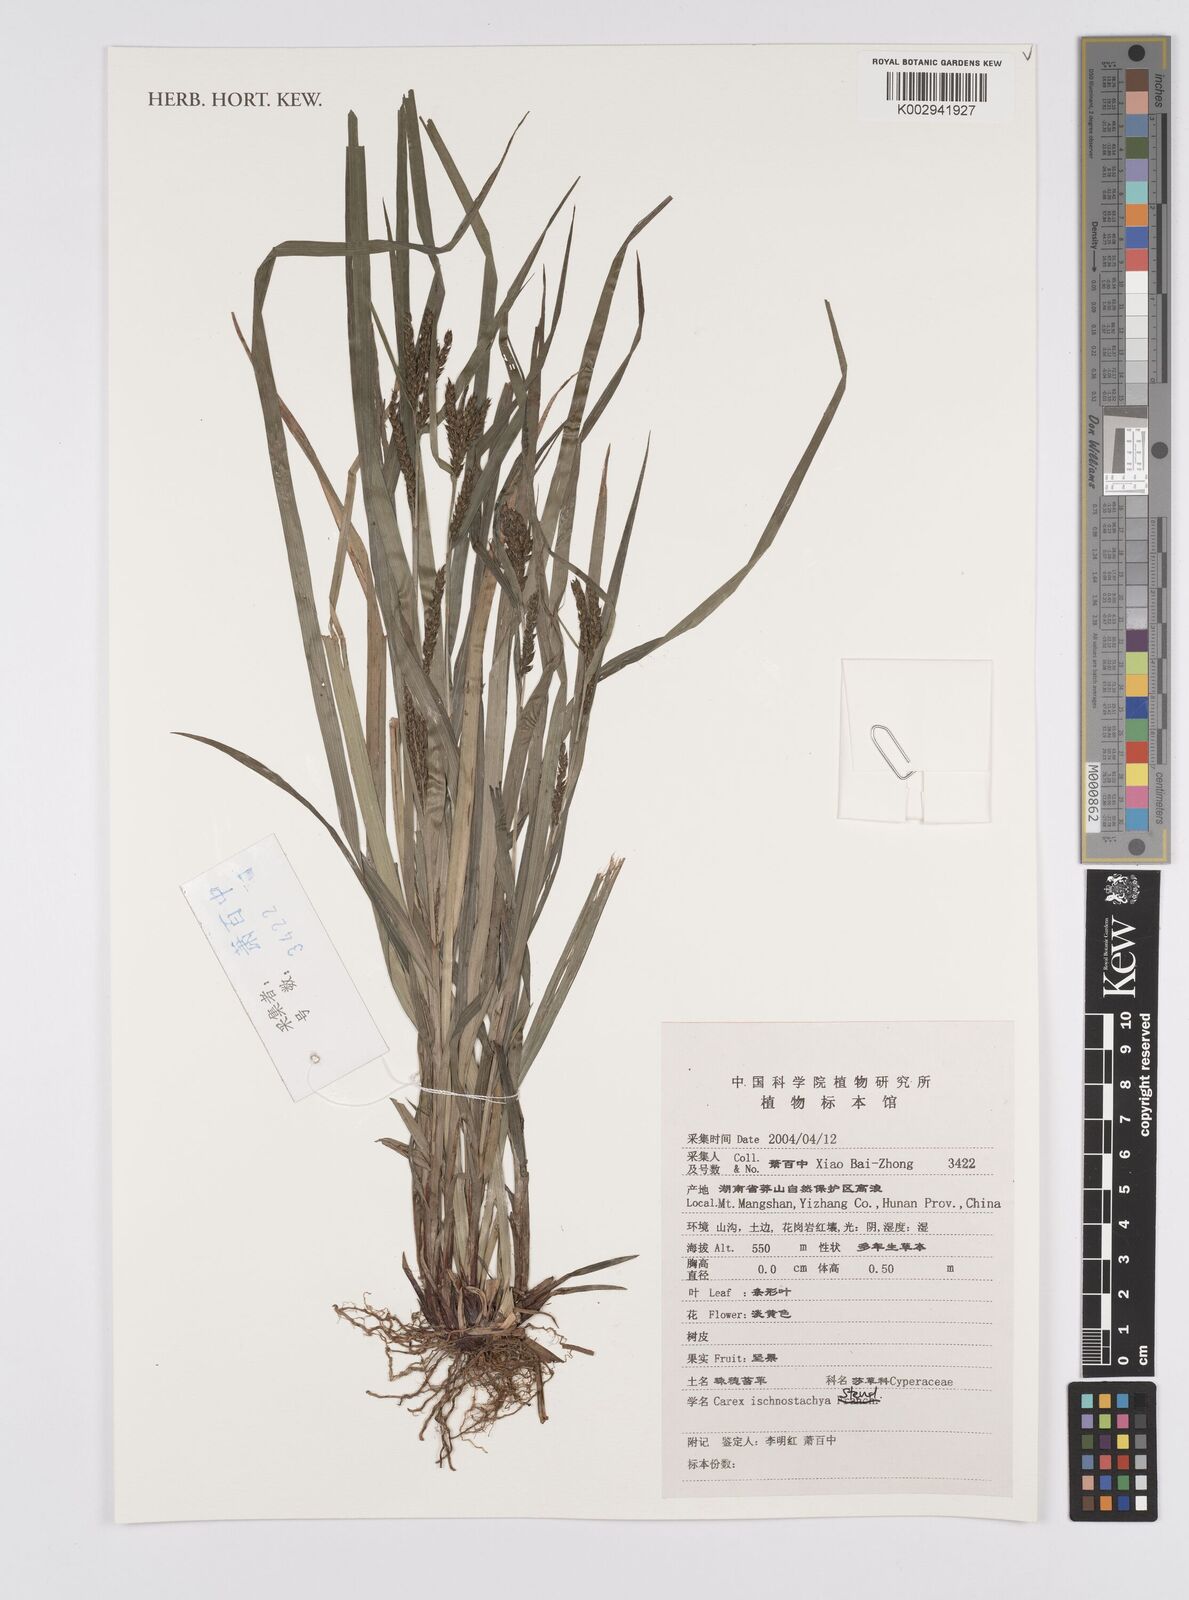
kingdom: Plantae
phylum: Tracheophyta
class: Liliopsida
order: Poales
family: Cyperaceae
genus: Carex
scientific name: Carex ischnostachya
